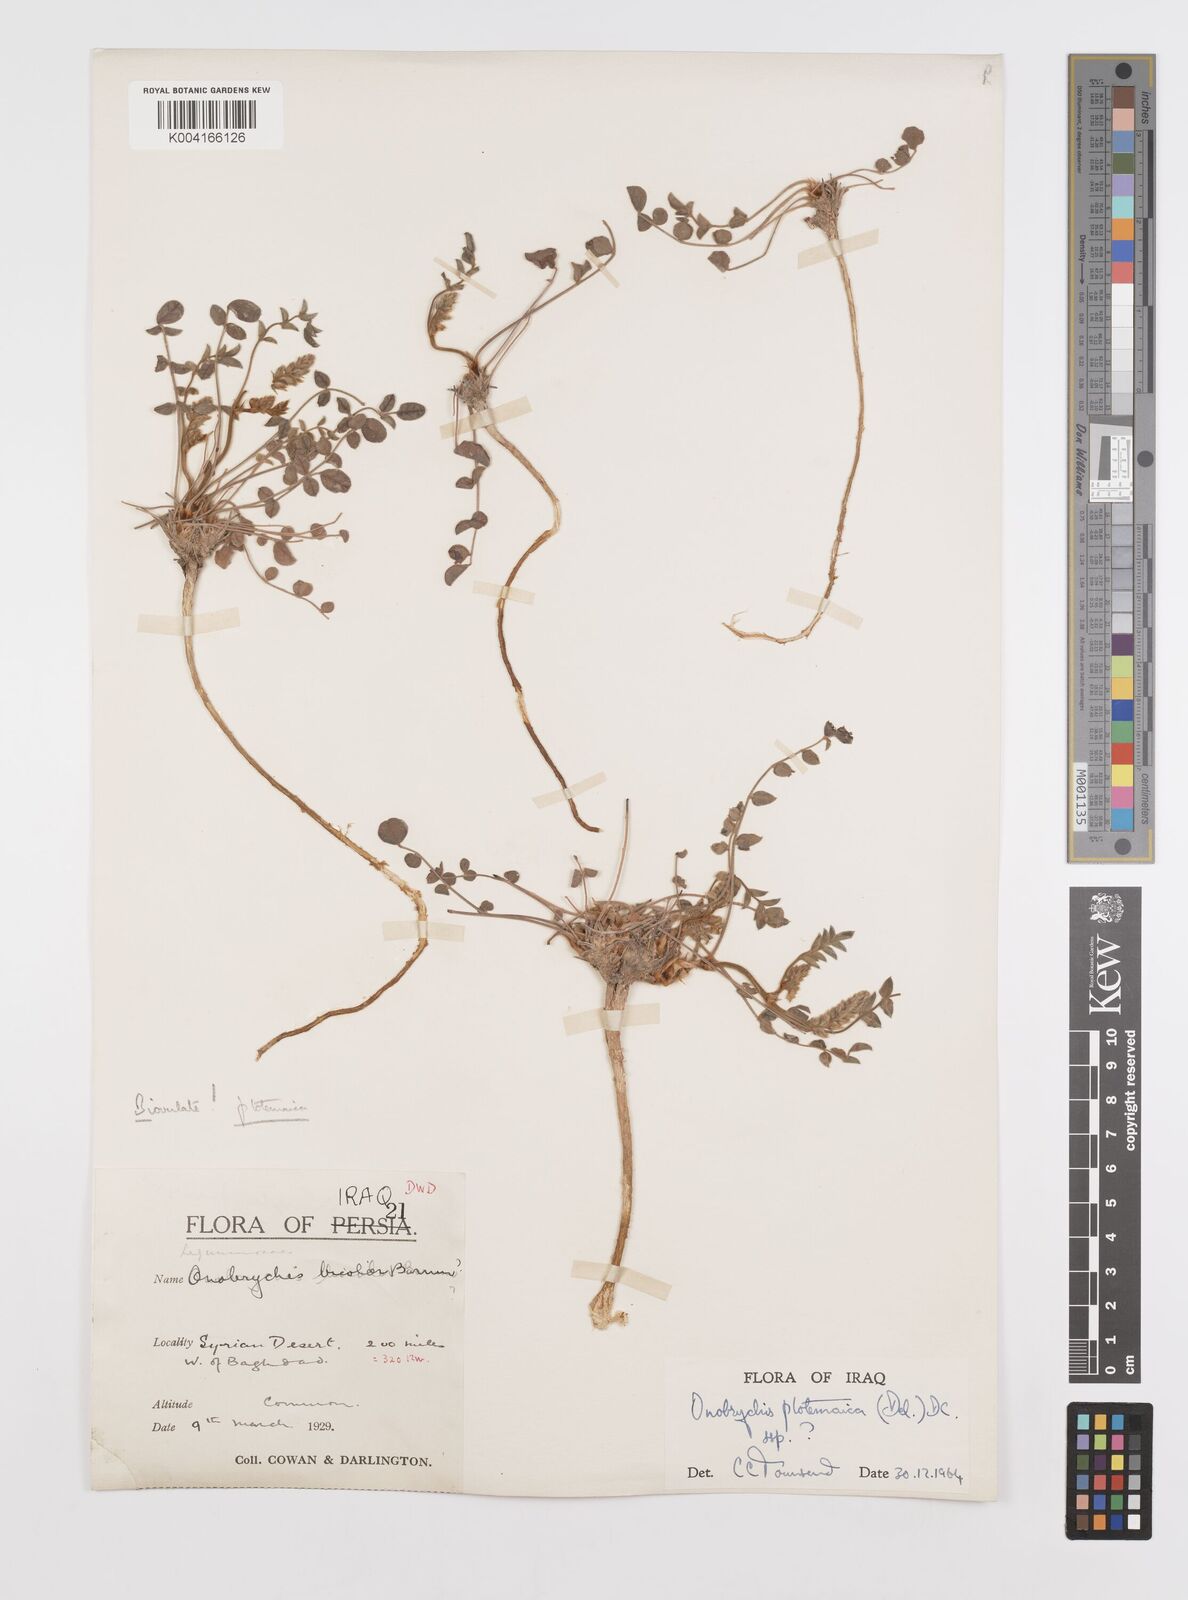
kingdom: Plantae
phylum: Tracheophyta
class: Magnoliopsida
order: Fabales
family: Fabaceae
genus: Onobrychis
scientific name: Onobrychis ptolemaica
